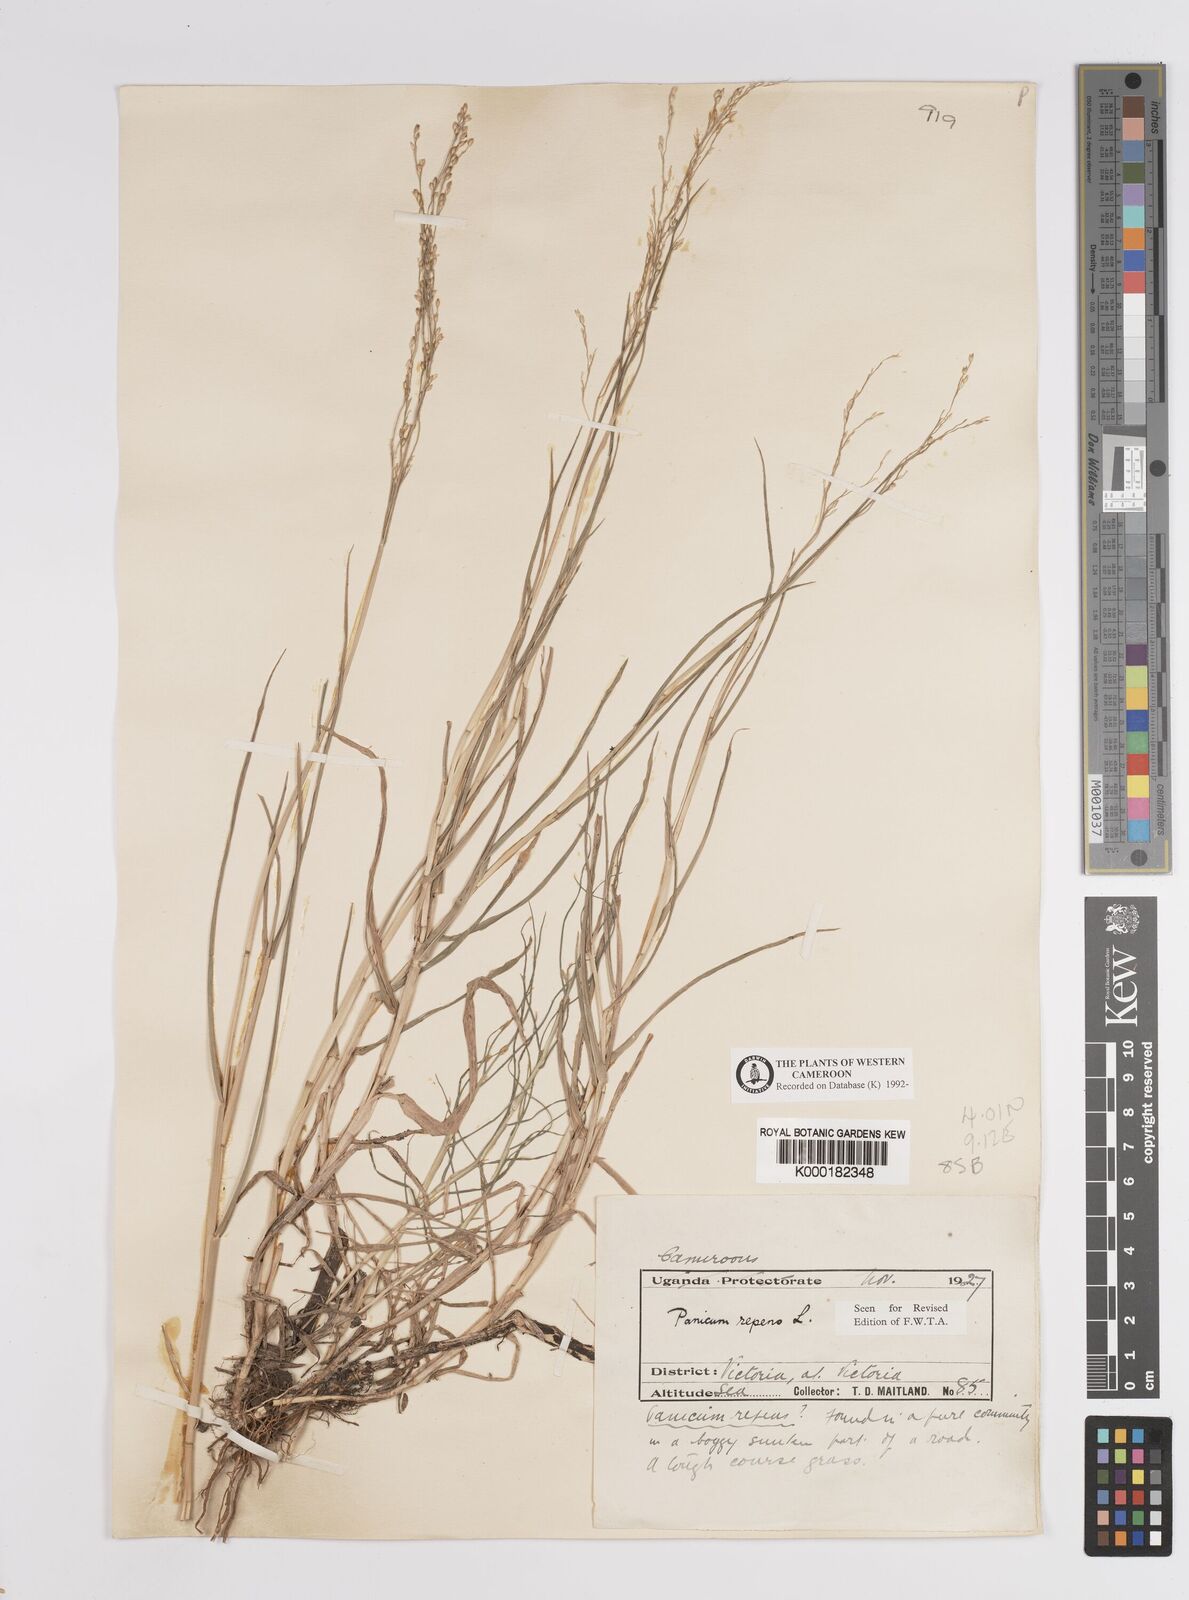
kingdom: Plantae
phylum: Tracheophyta
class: Liliopsida
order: Poales
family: Poaceae
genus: Panicum
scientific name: Panicum repens
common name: Torpedo grass
